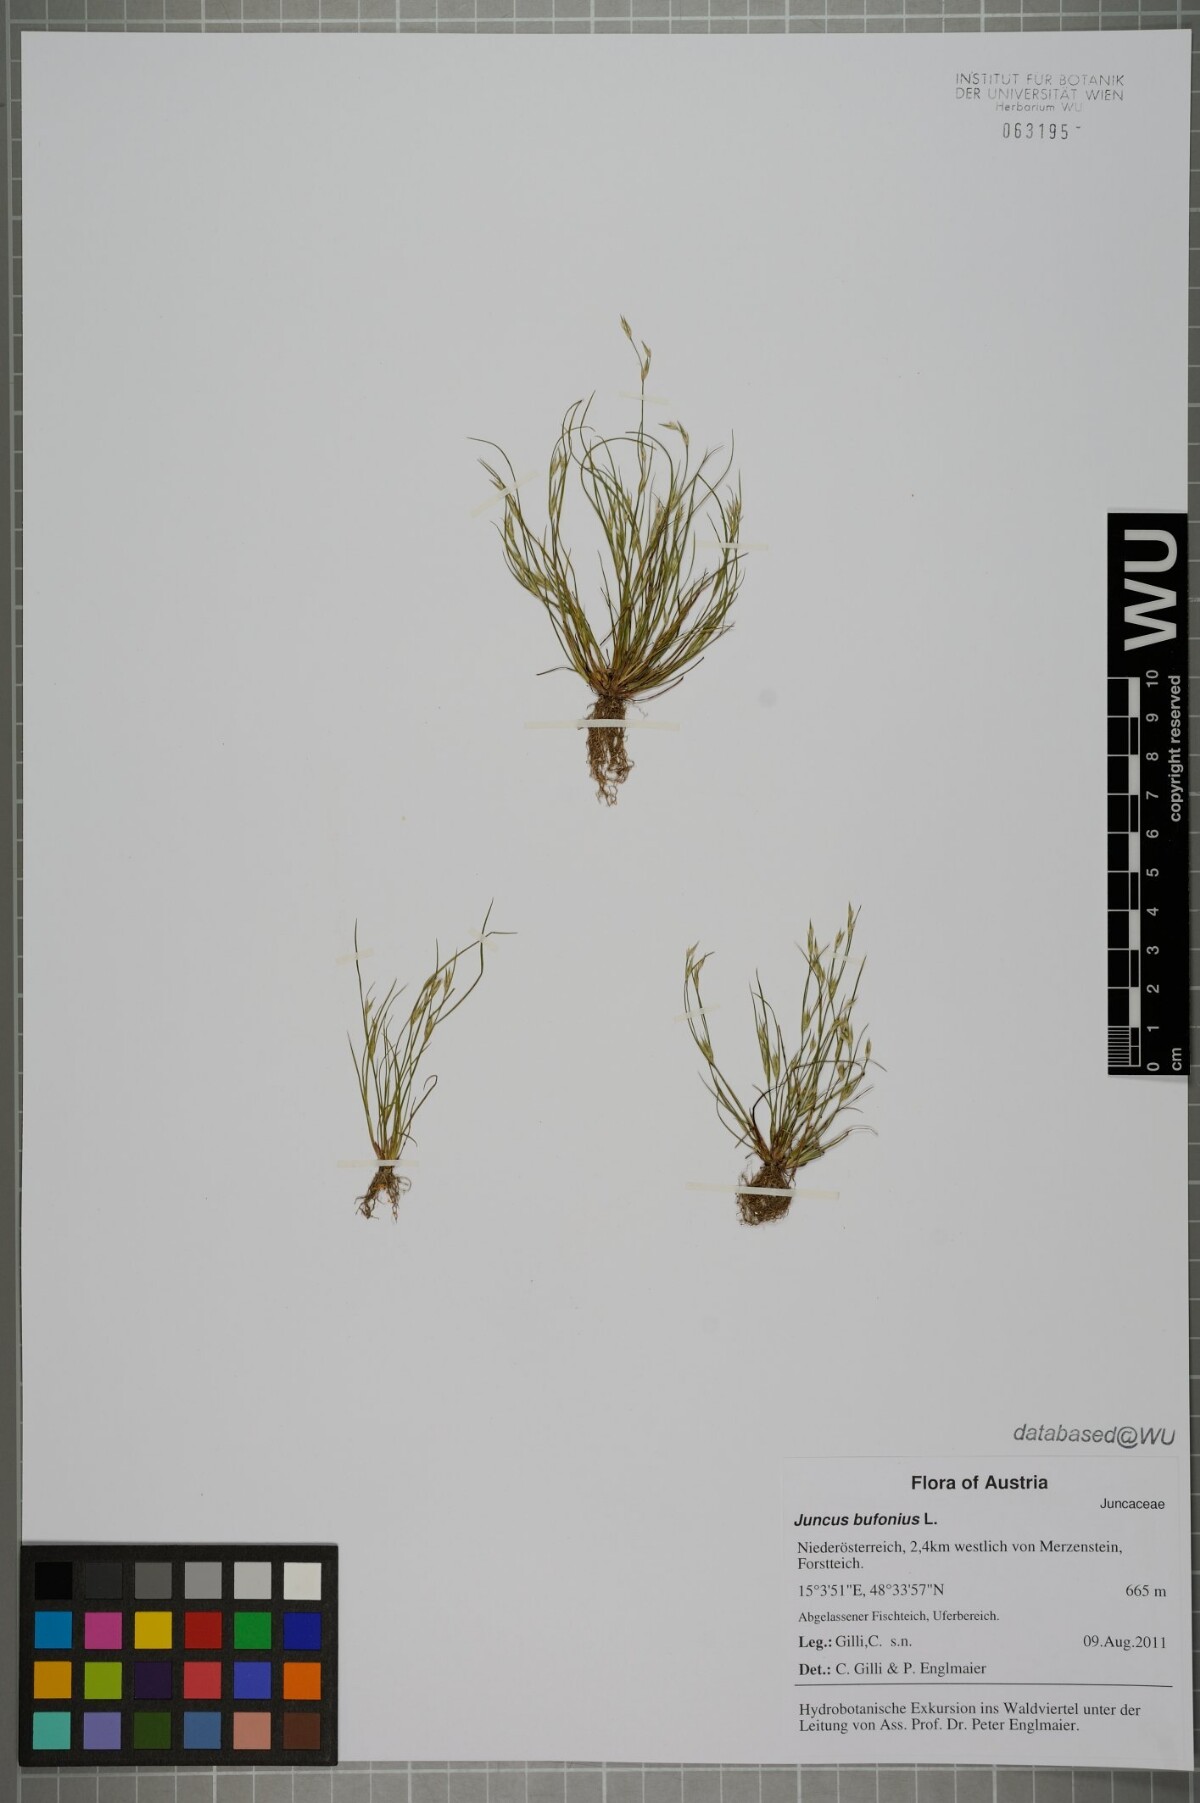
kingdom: Plantae
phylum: Tracheophyta
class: Liliopsida
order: Poales
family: Juncaceae
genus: Juncus
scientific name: Juncus bufonius
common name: Toad rush
